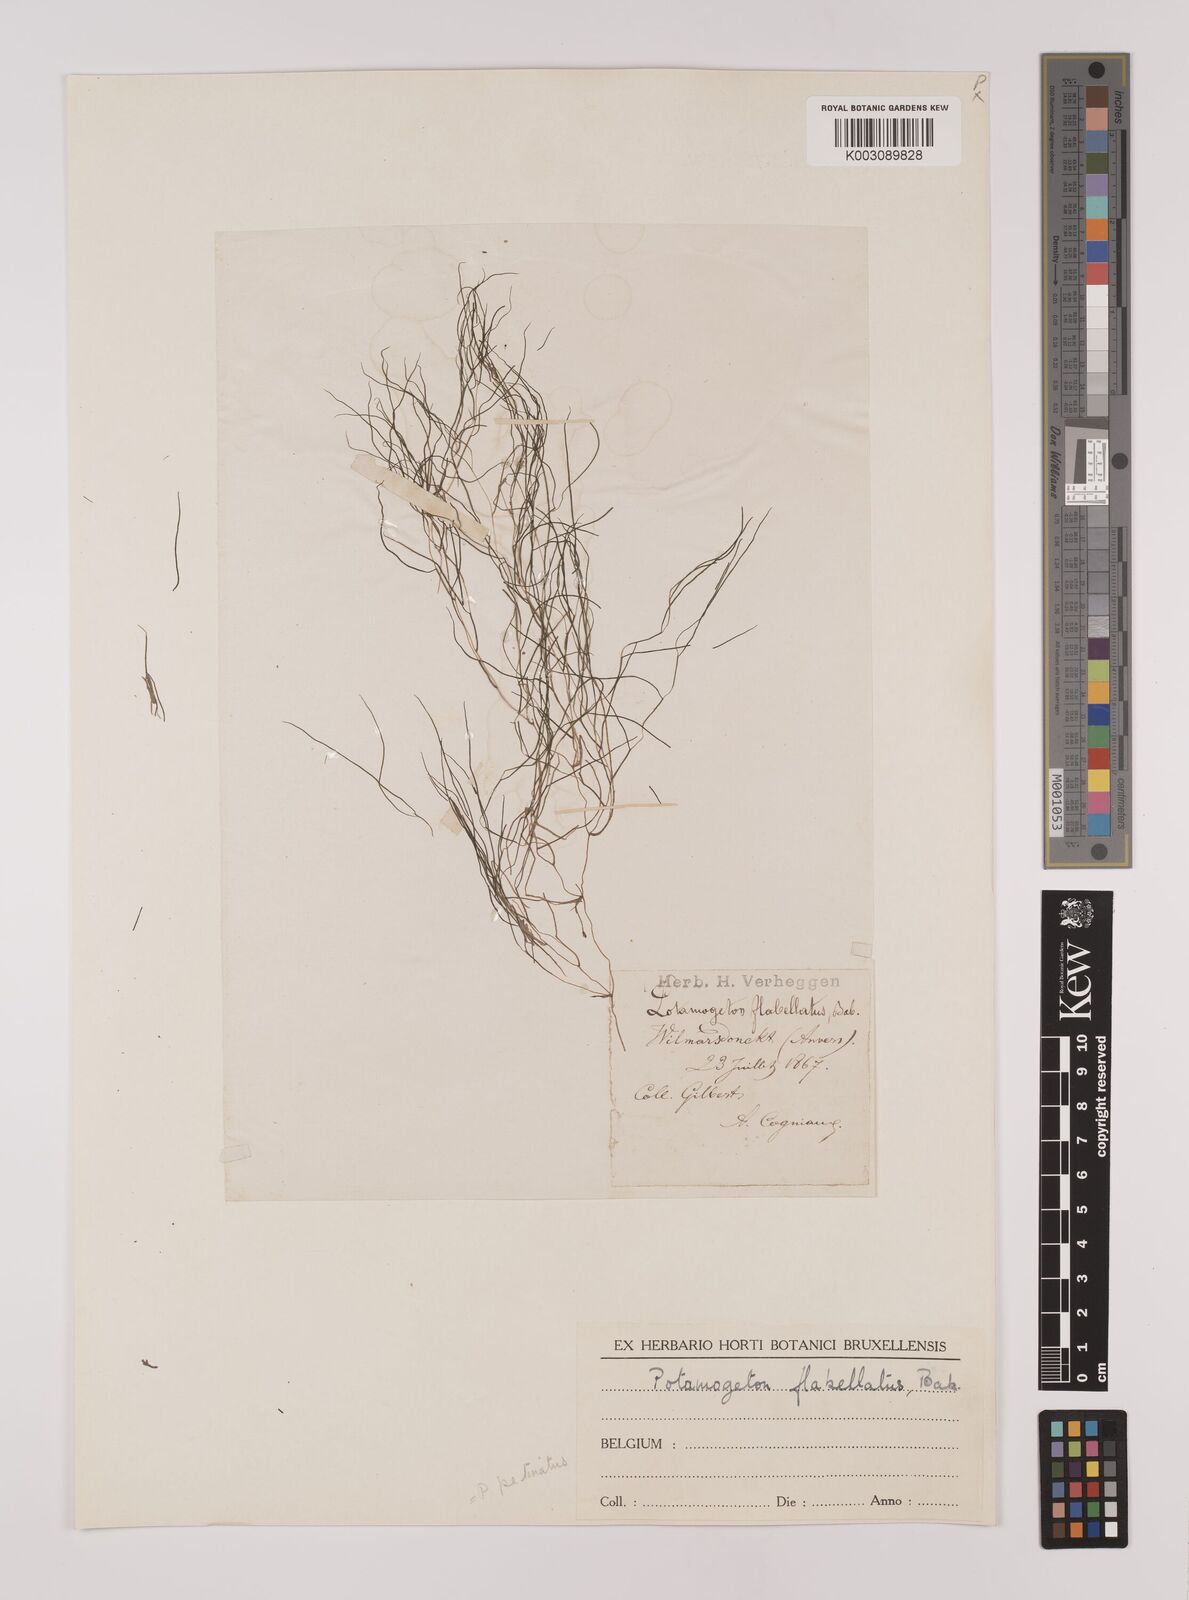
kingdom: Plantae
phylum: Tracheophyta
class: Liliopsida
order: Alismatales
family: Potamogetonaceae
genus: Stuckenia
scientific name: Stuckenia pectinata
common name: Sago pondweed
